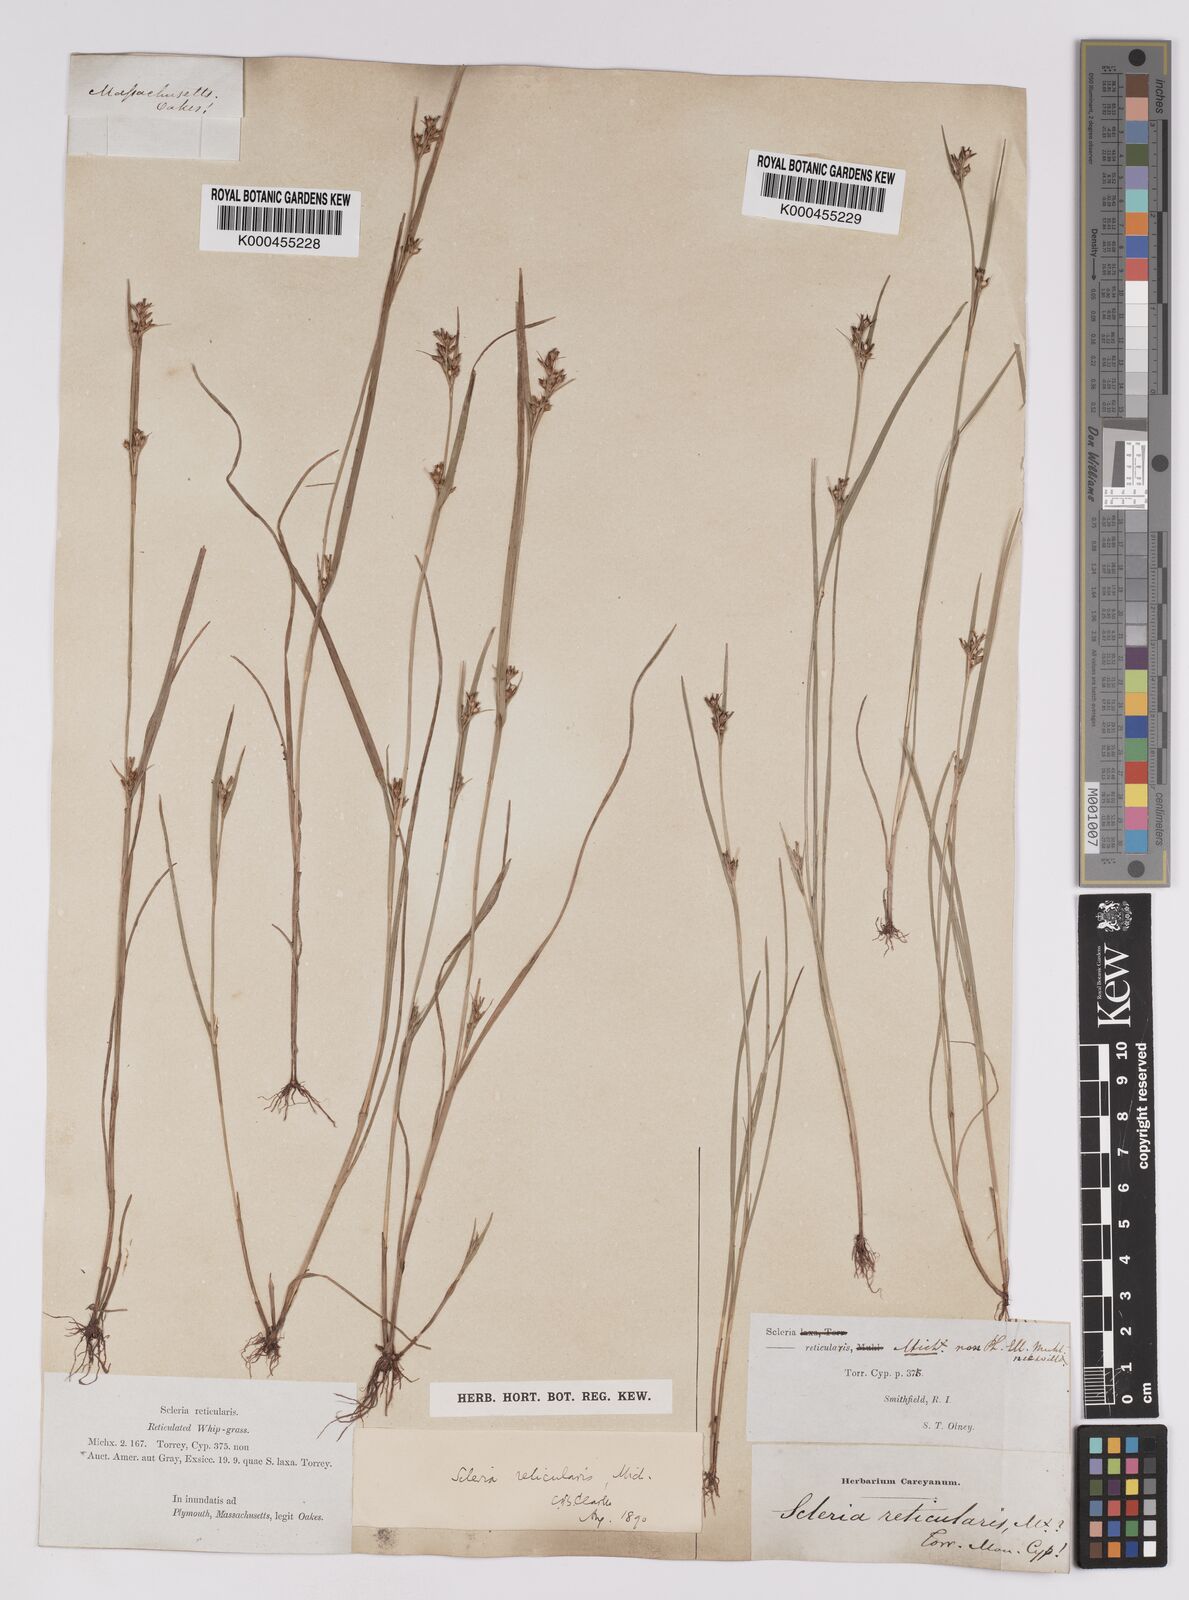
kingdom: Plantae
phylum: Tracheophyta
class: Liliopsida
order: Poales
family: Cyperaceae
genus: Scleria
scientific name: Scleria
